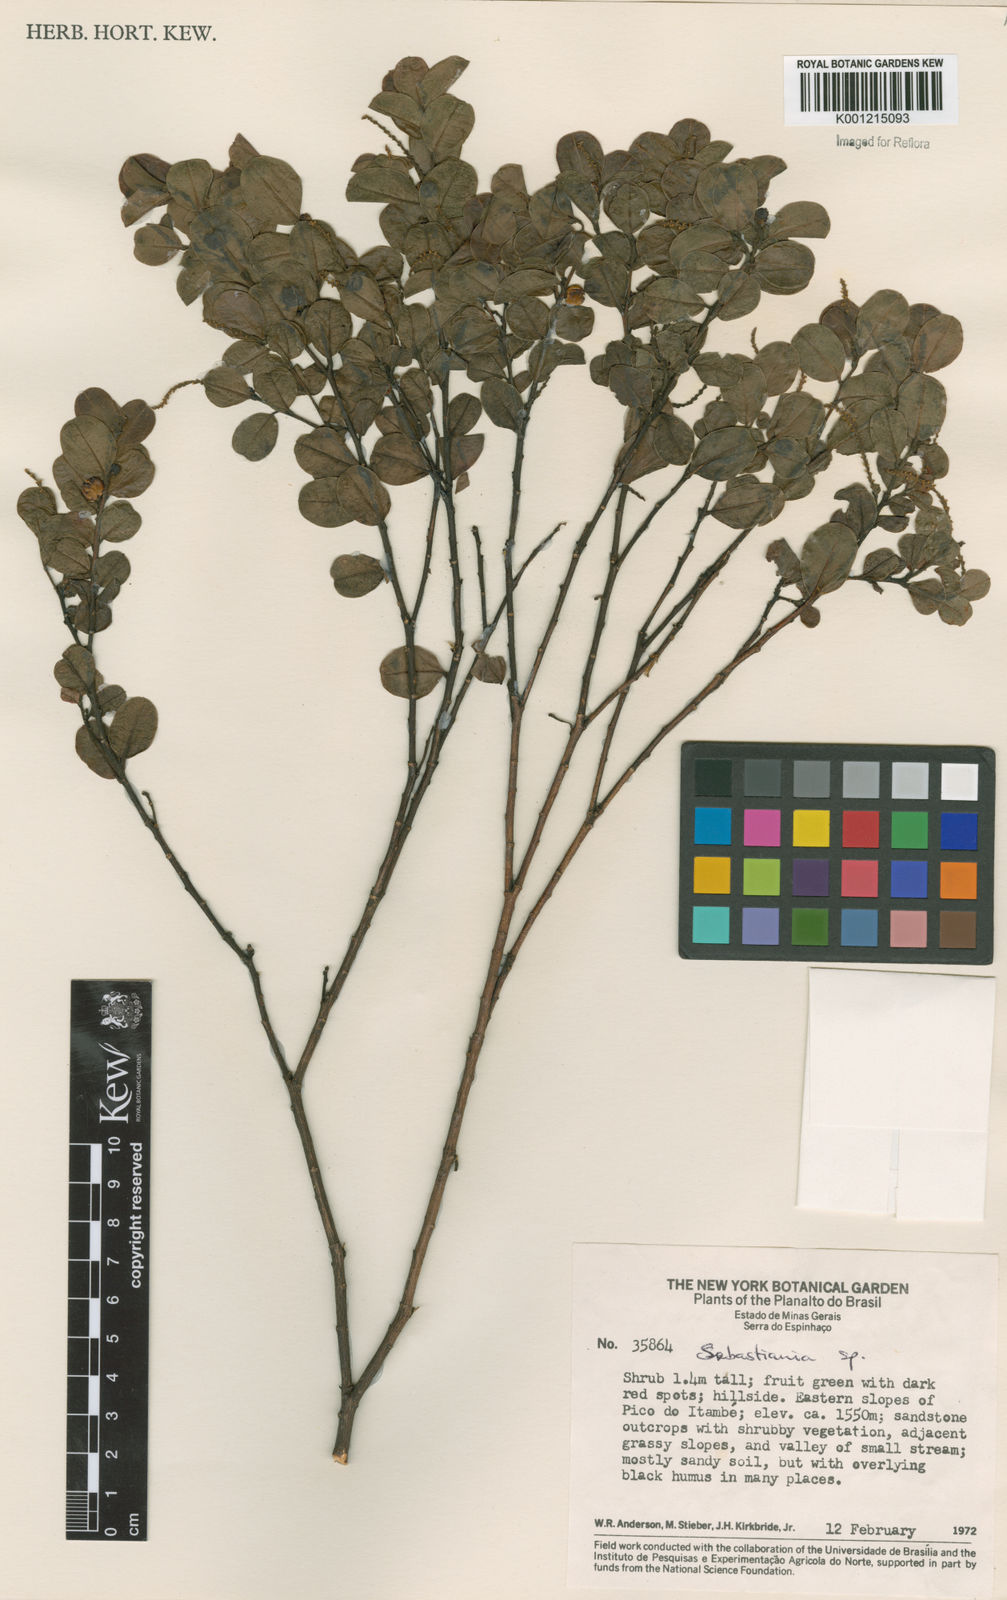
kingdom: Plantae
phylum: Tracheophyta
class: Magnoliopsida
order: Malpighiales
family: Euphorbiaceae
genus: Sebastiania
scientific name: Sebastiania
